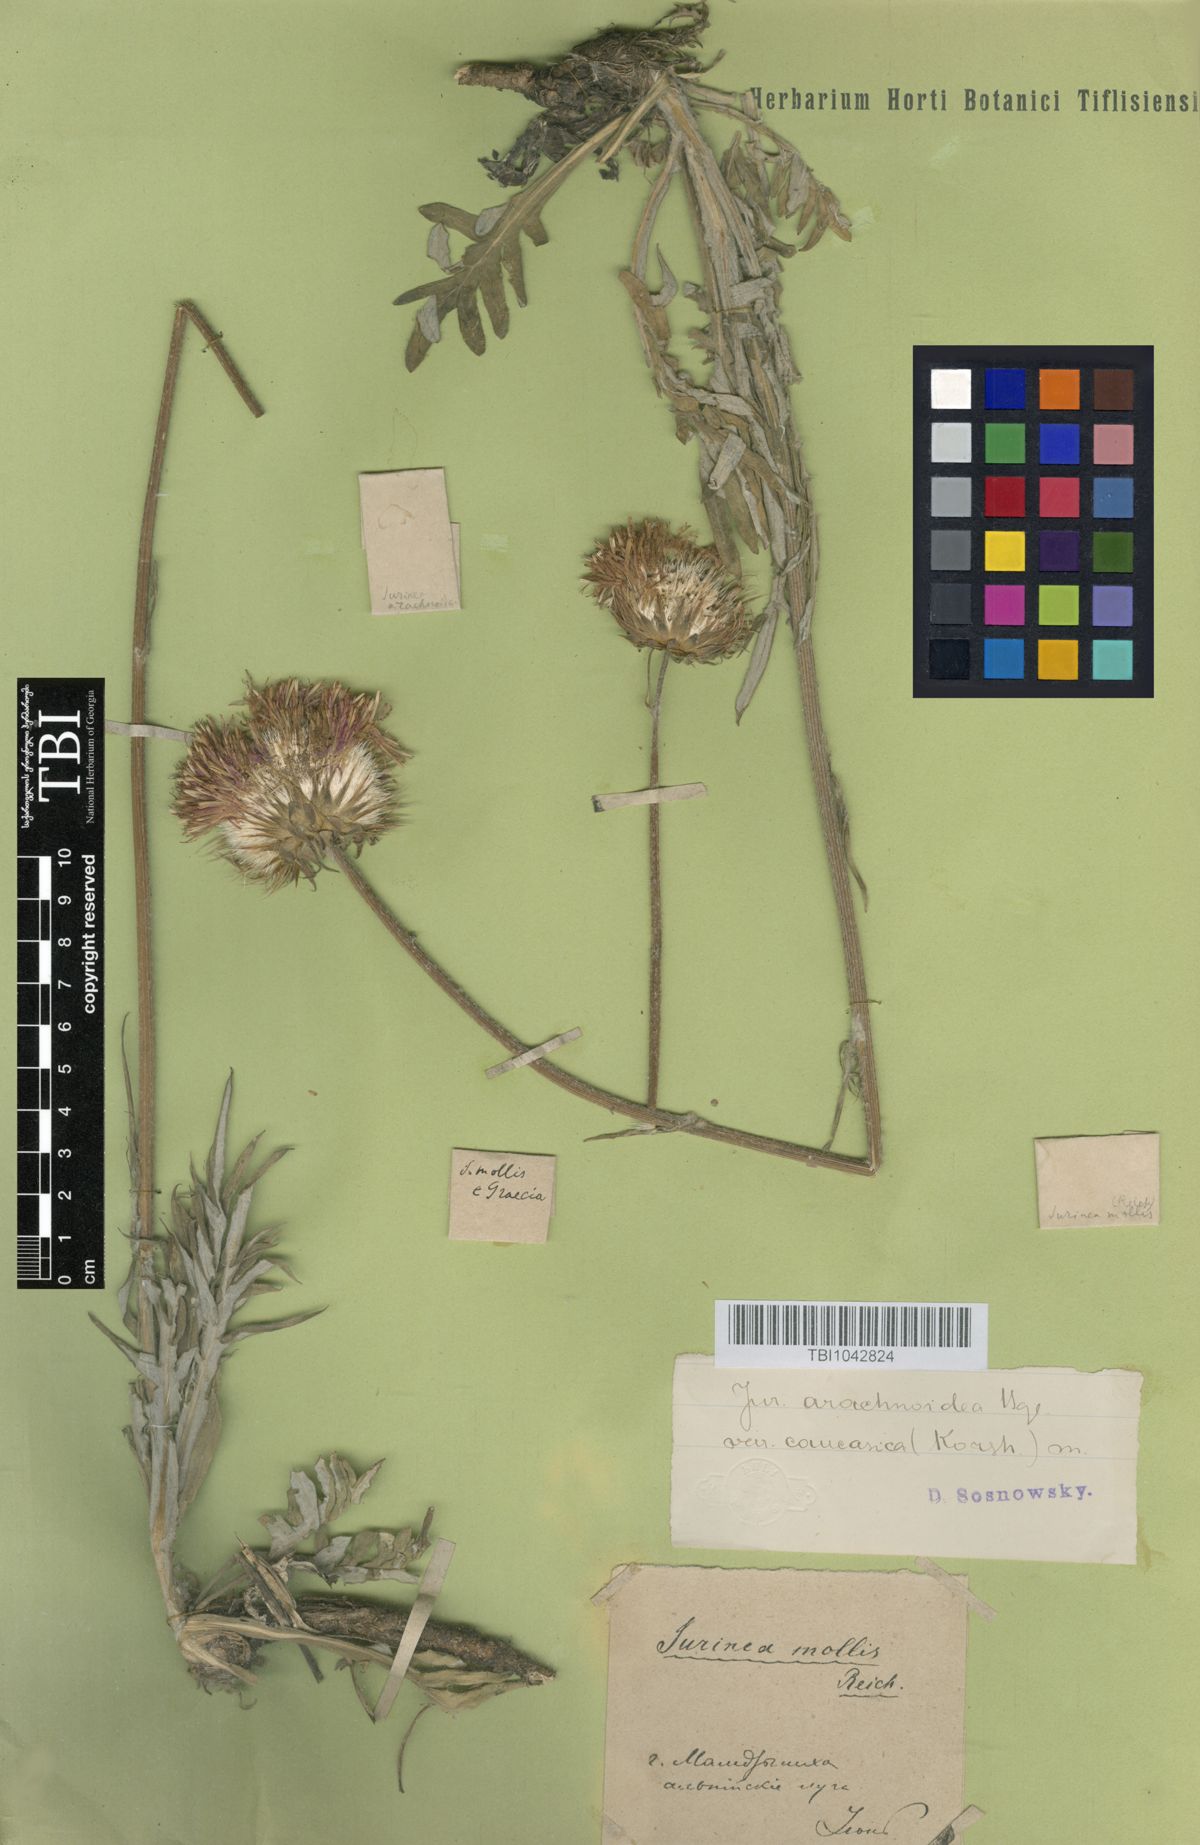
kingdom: Plantae
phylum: Tracheophyta
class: Magnoliopsida
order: Asterales
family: Asteraceae
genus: Jurinea
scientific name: Jurinea blanda
